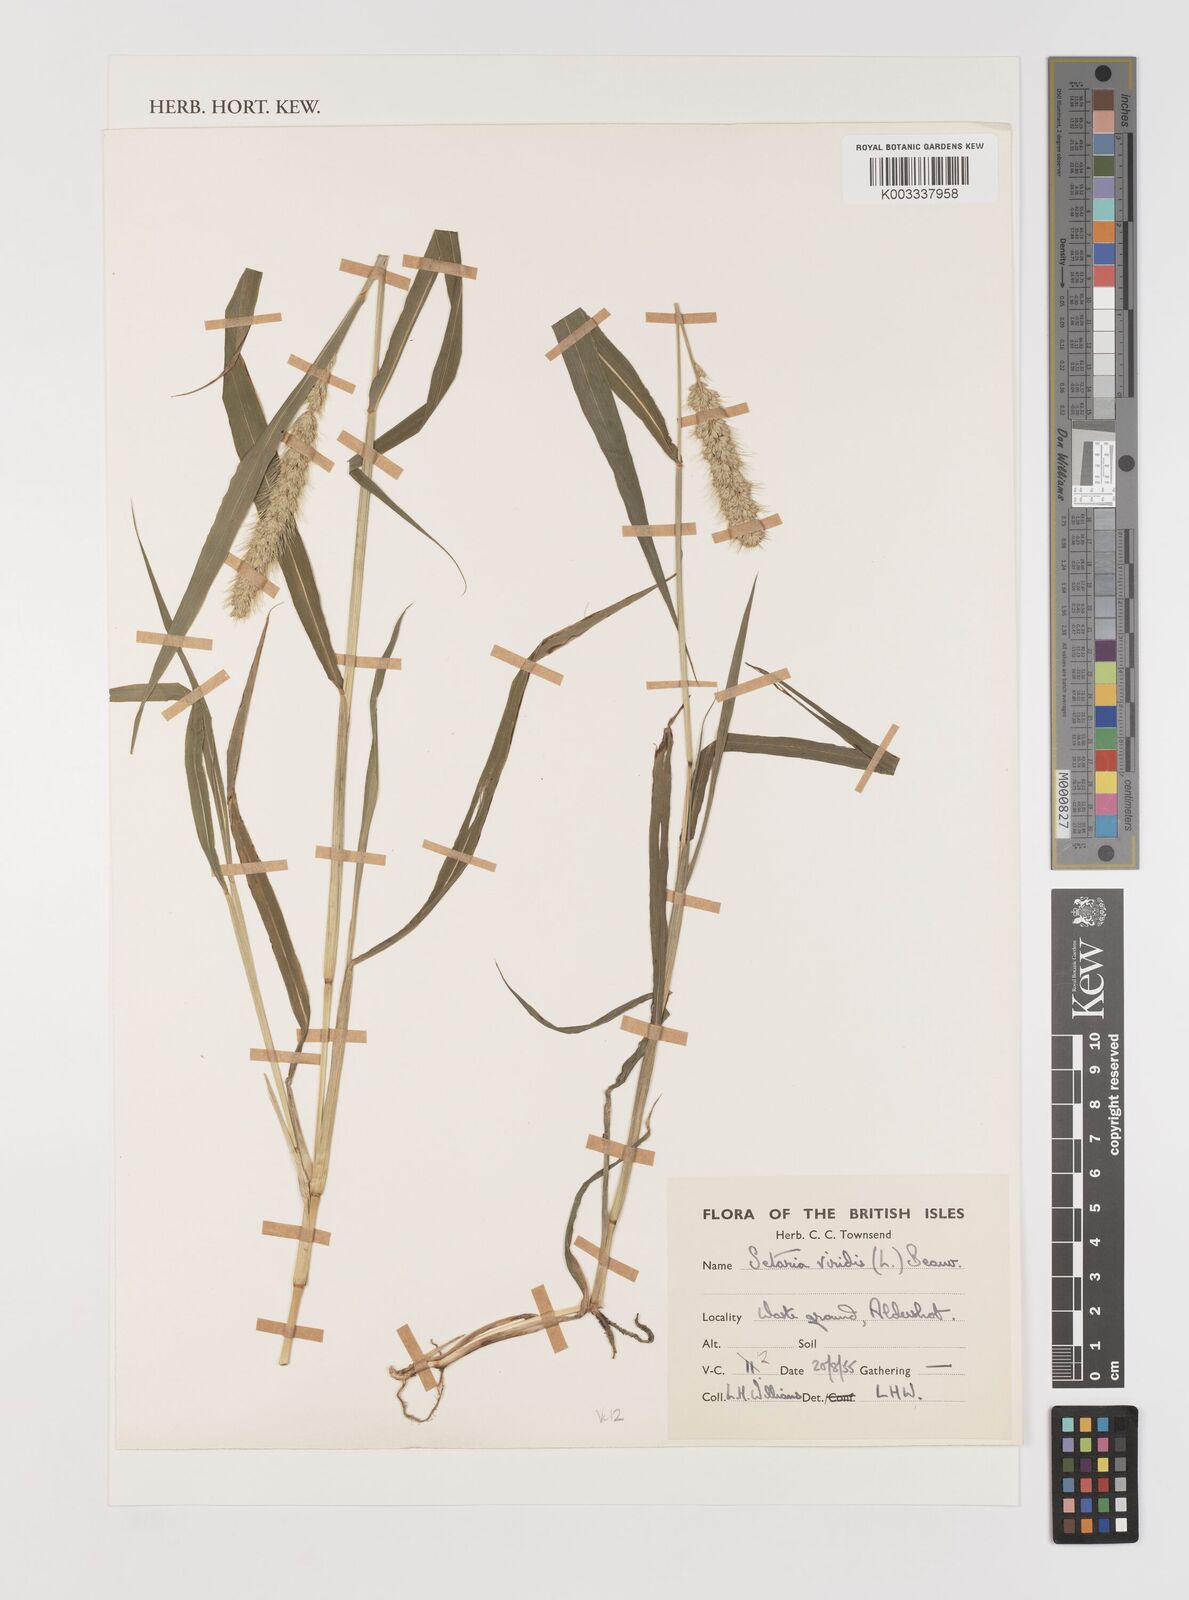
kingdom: Plantae
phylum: Tracheophyta
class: Liliopsida
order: Poales
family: Poaceae
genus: Setaria
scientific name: Setaria italica
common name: Foxtail bristle-grass
